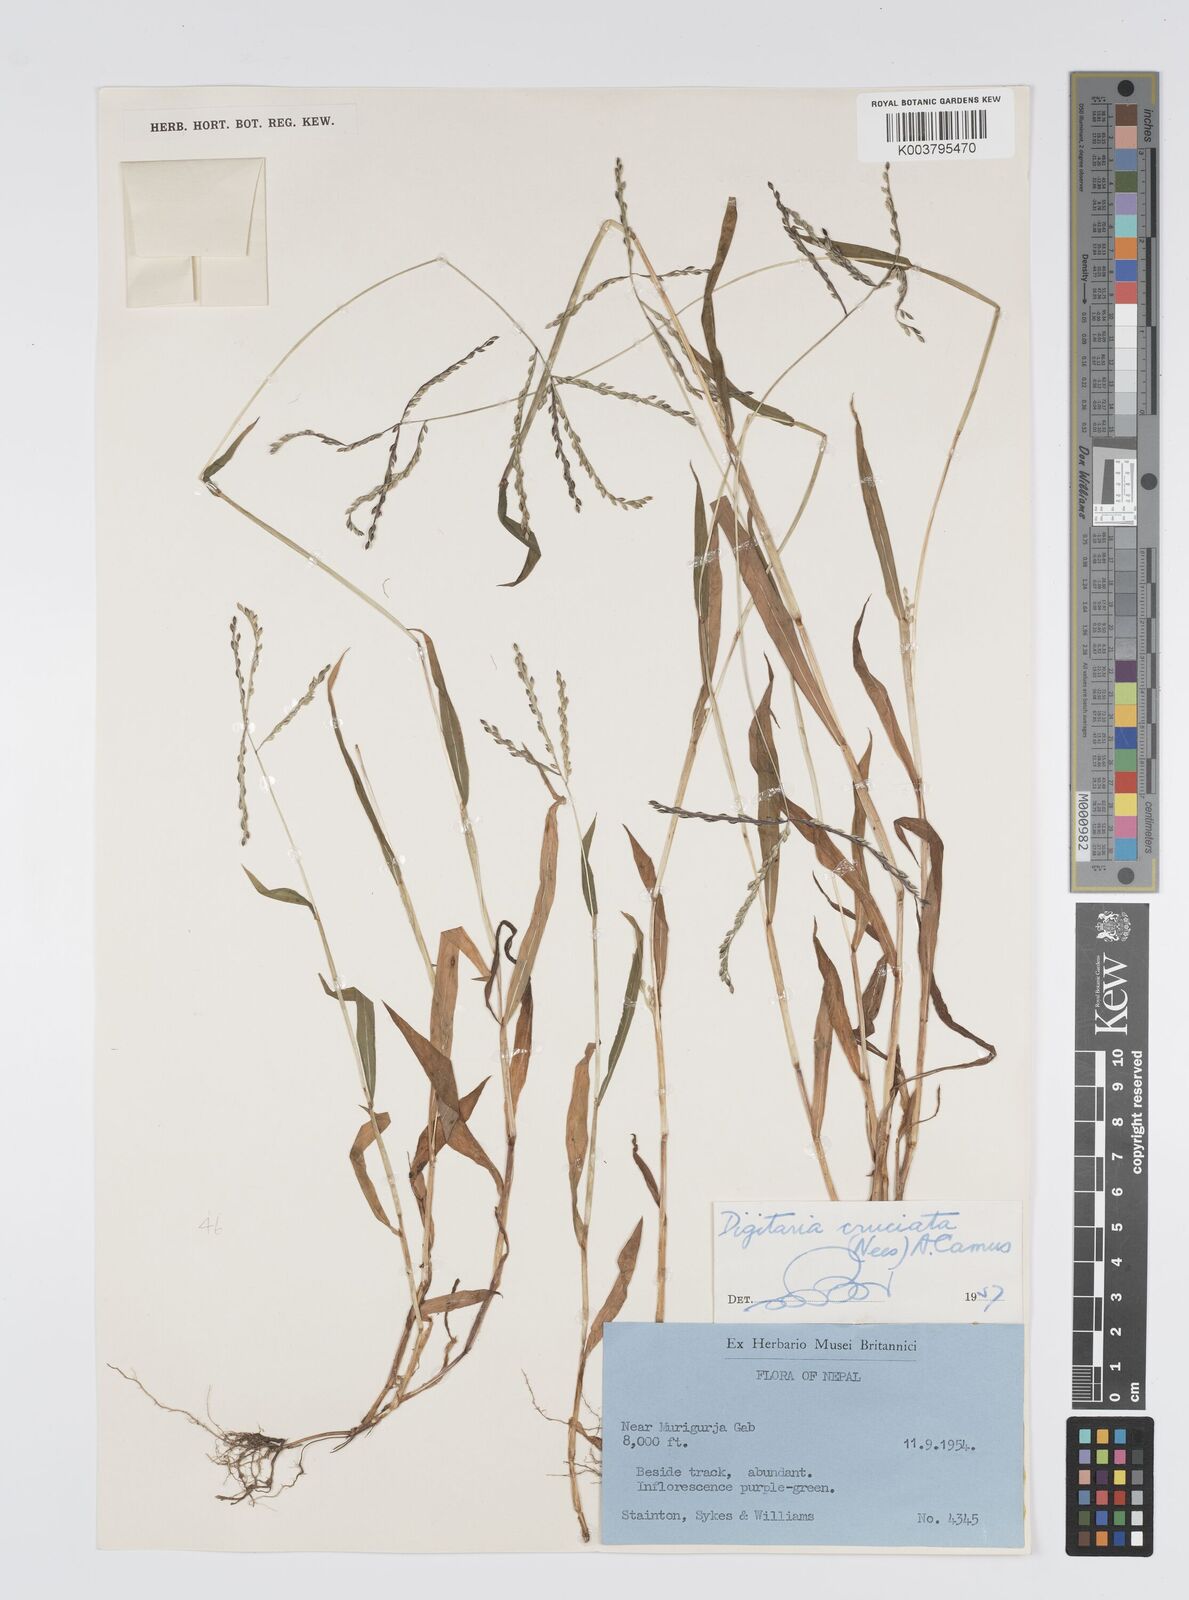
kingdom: Plantae
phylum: Tracheophyta
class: Liliopsida
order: Poales
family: Poaceae
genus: Digitaria
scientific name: Digitaria cruciata
